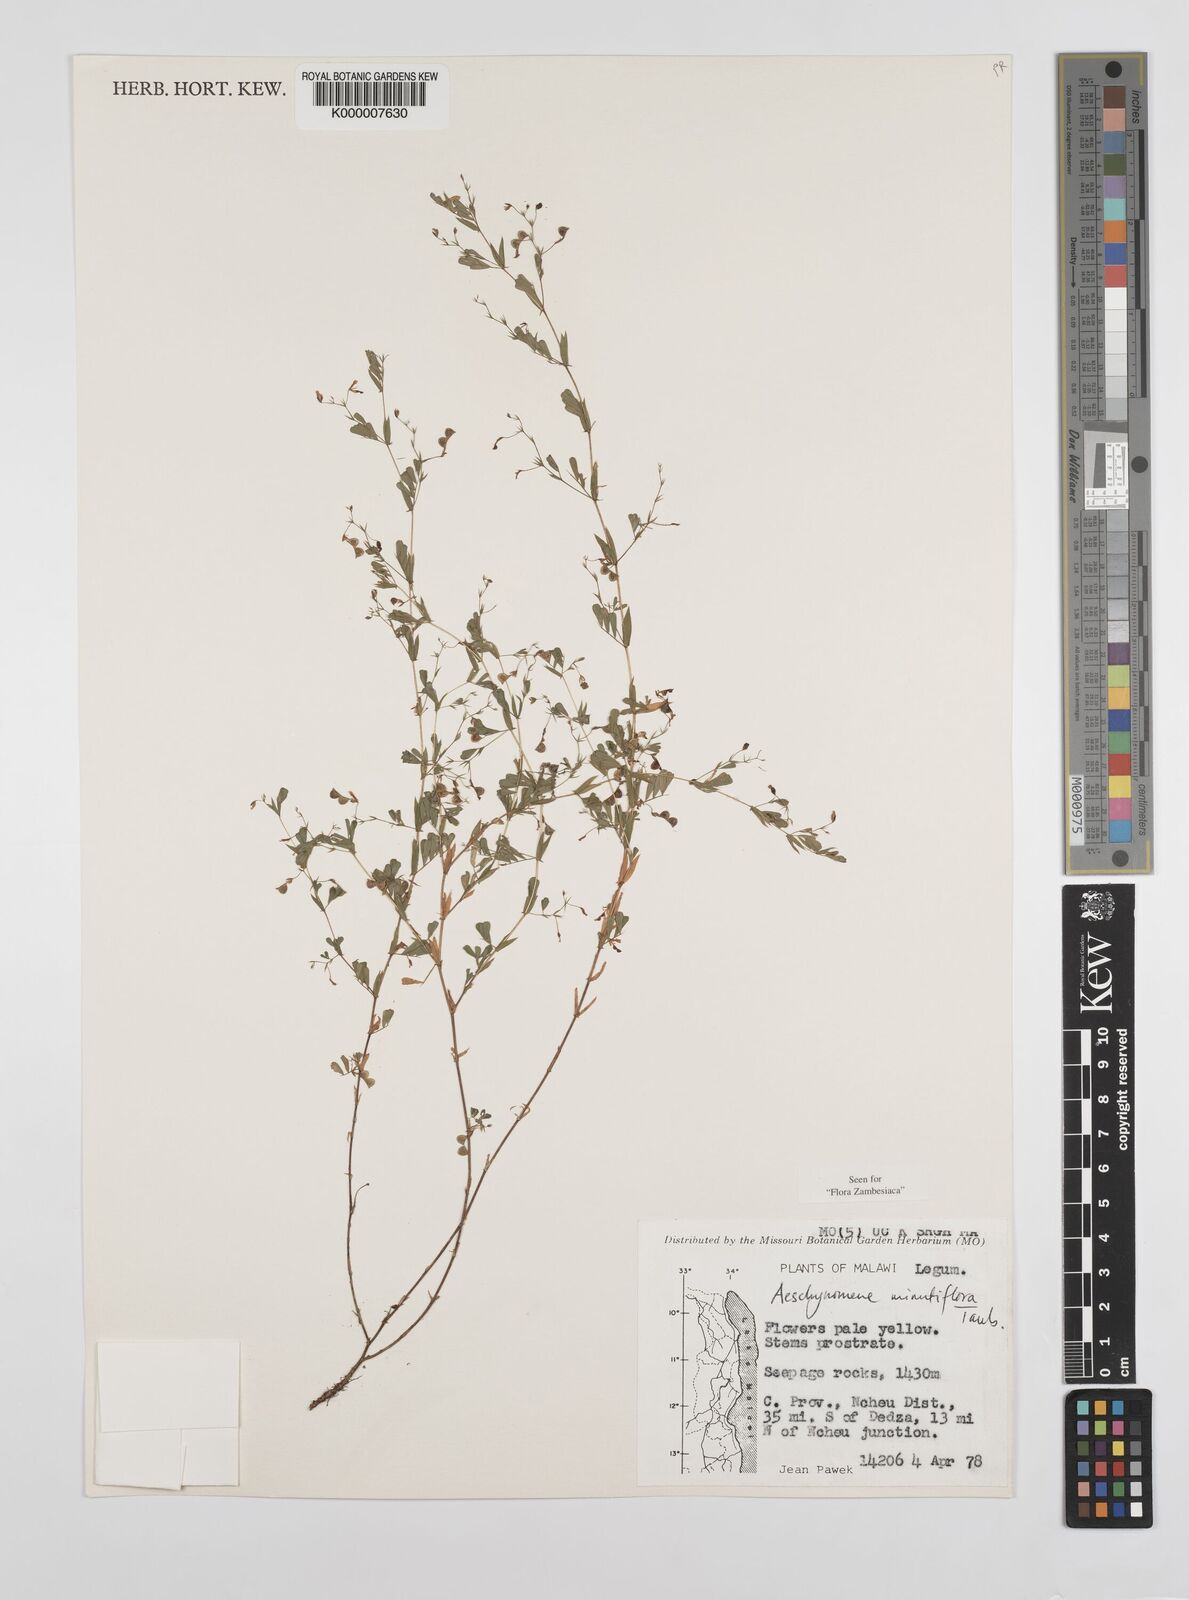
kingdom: Plantae
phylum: Tracheophyta
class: Magnoliopsida
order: Fabales
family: Fabaceae
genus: Aeschynomene
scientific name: Aeschynomene minutiflora
